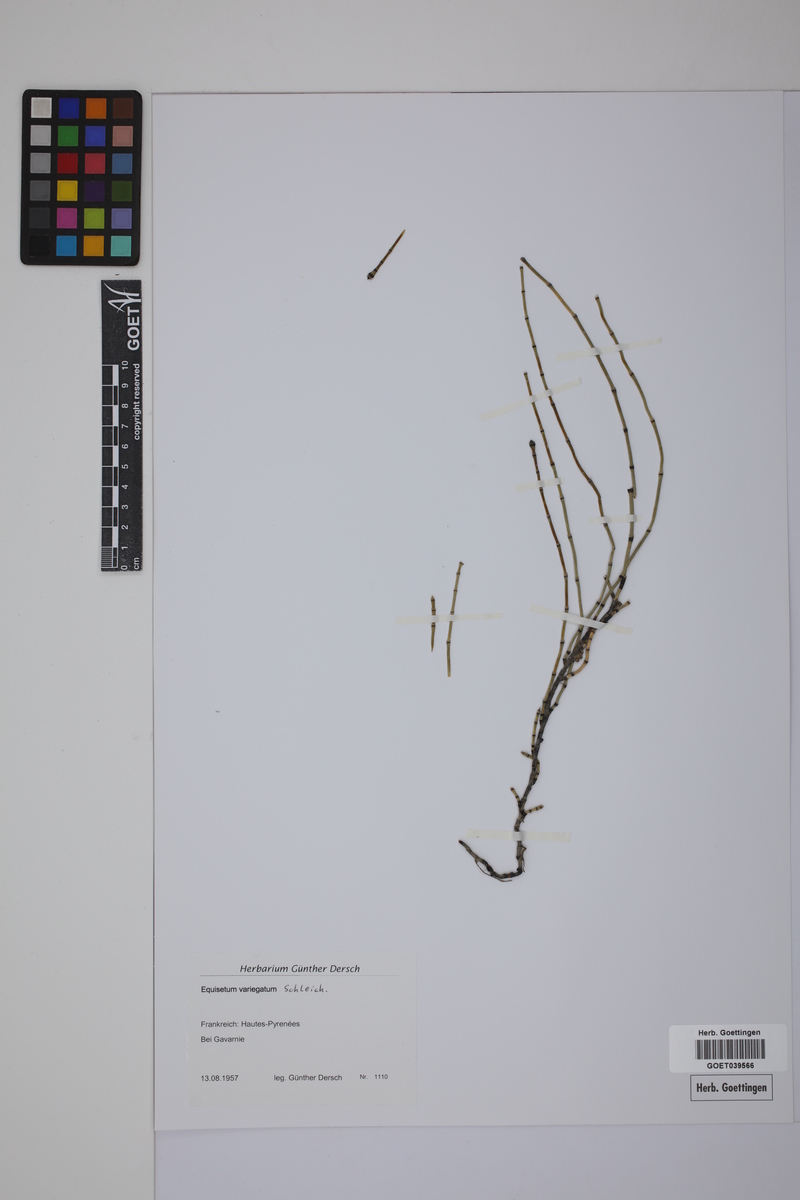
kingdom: Plantae
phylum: Tracheophyta
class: Polypodiopsida
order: Equisetales
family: Equisetaceae
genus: Equisetum
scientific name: Equisetum variegatum
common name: Variegated horsetail
